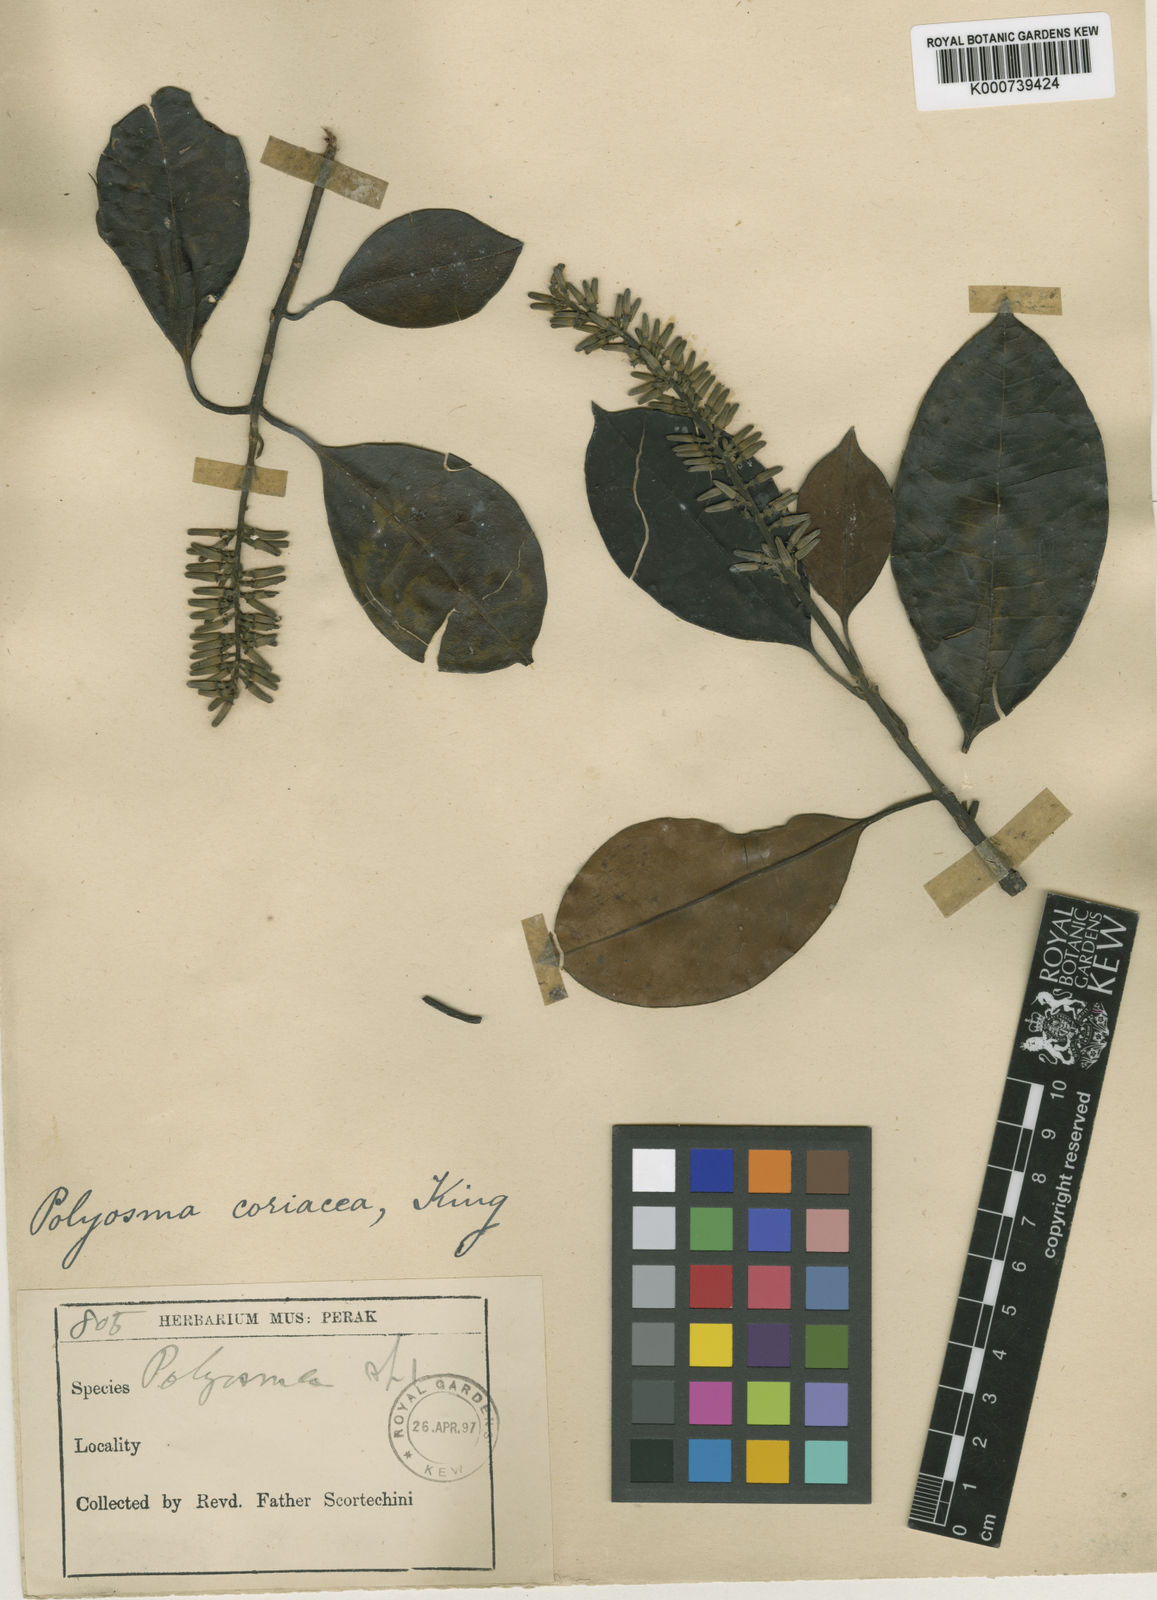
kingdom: Plantae
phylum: Tracheophyta
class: Magnoliopsida
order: Escalloniales
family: Escalloniaceae
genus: Polyosma
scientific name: Polyosma coriacea
